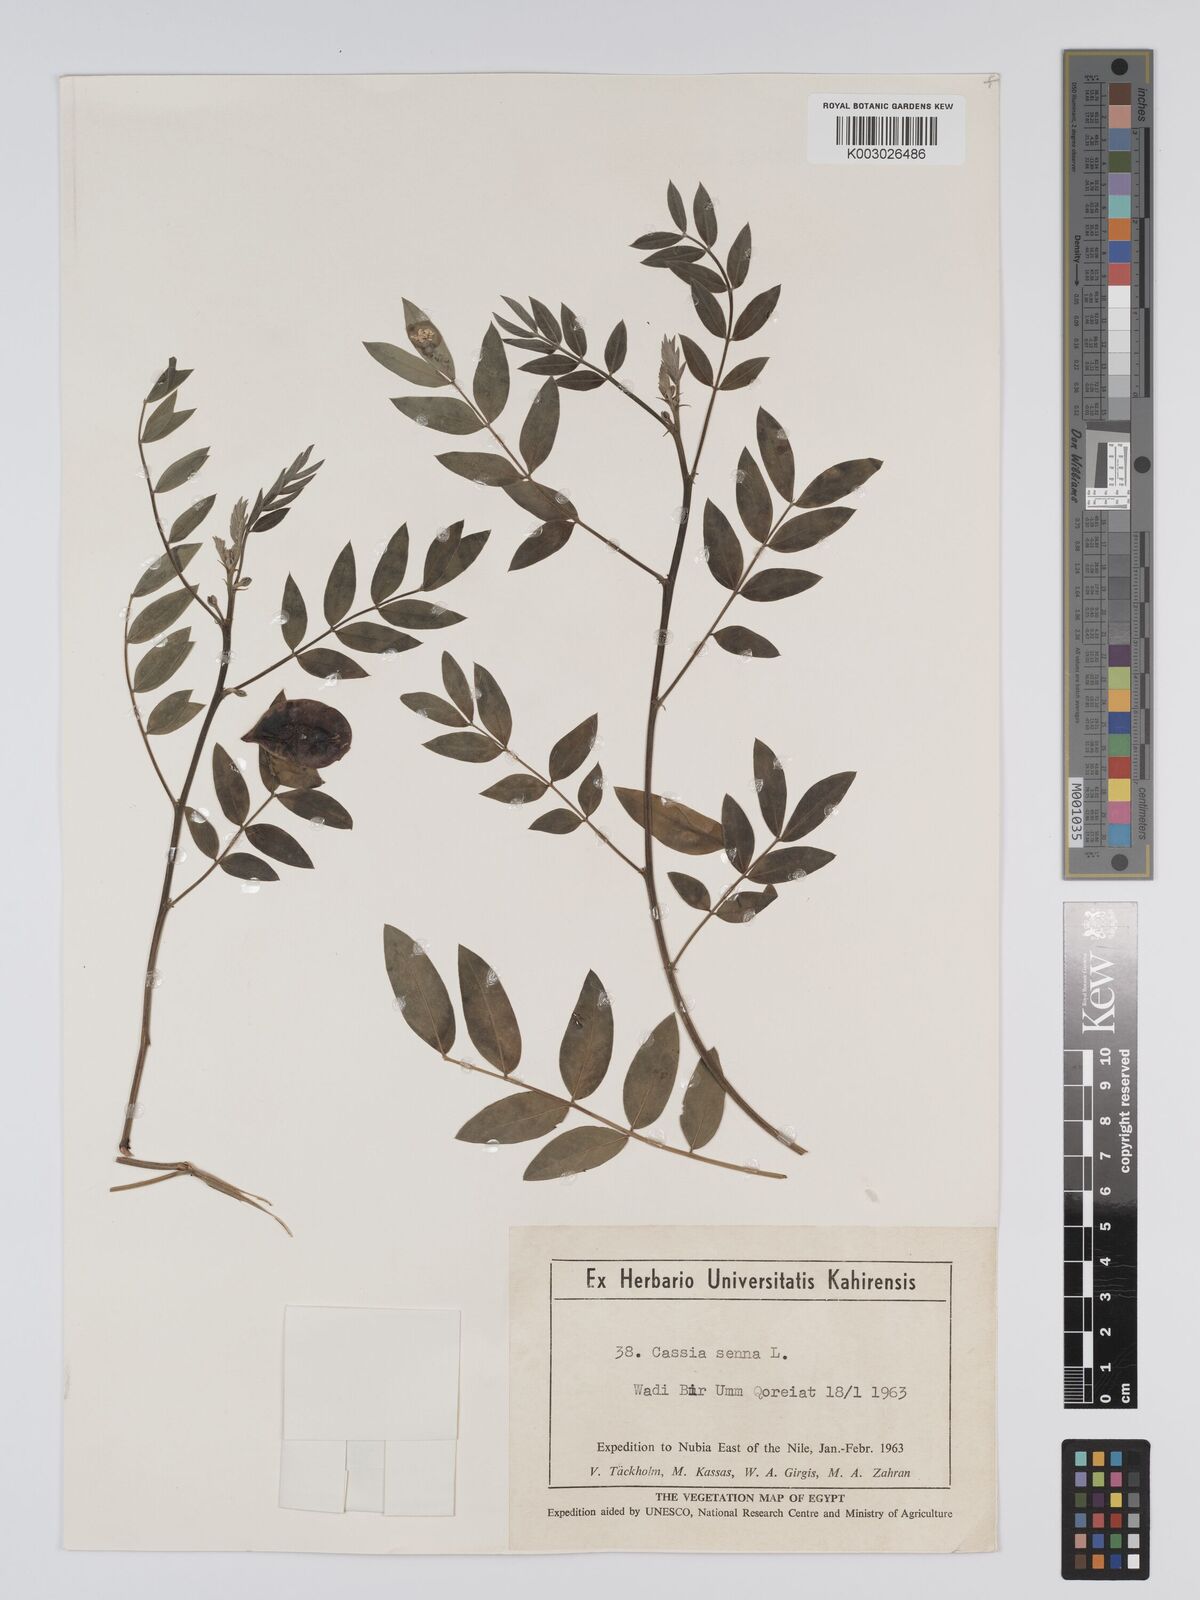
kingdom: Plantae
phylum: Tracheophyta
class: Magnoliopsida
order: Fabales
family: Fabaceae
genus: Senna
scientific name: Senna alexandrina
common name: True senna
